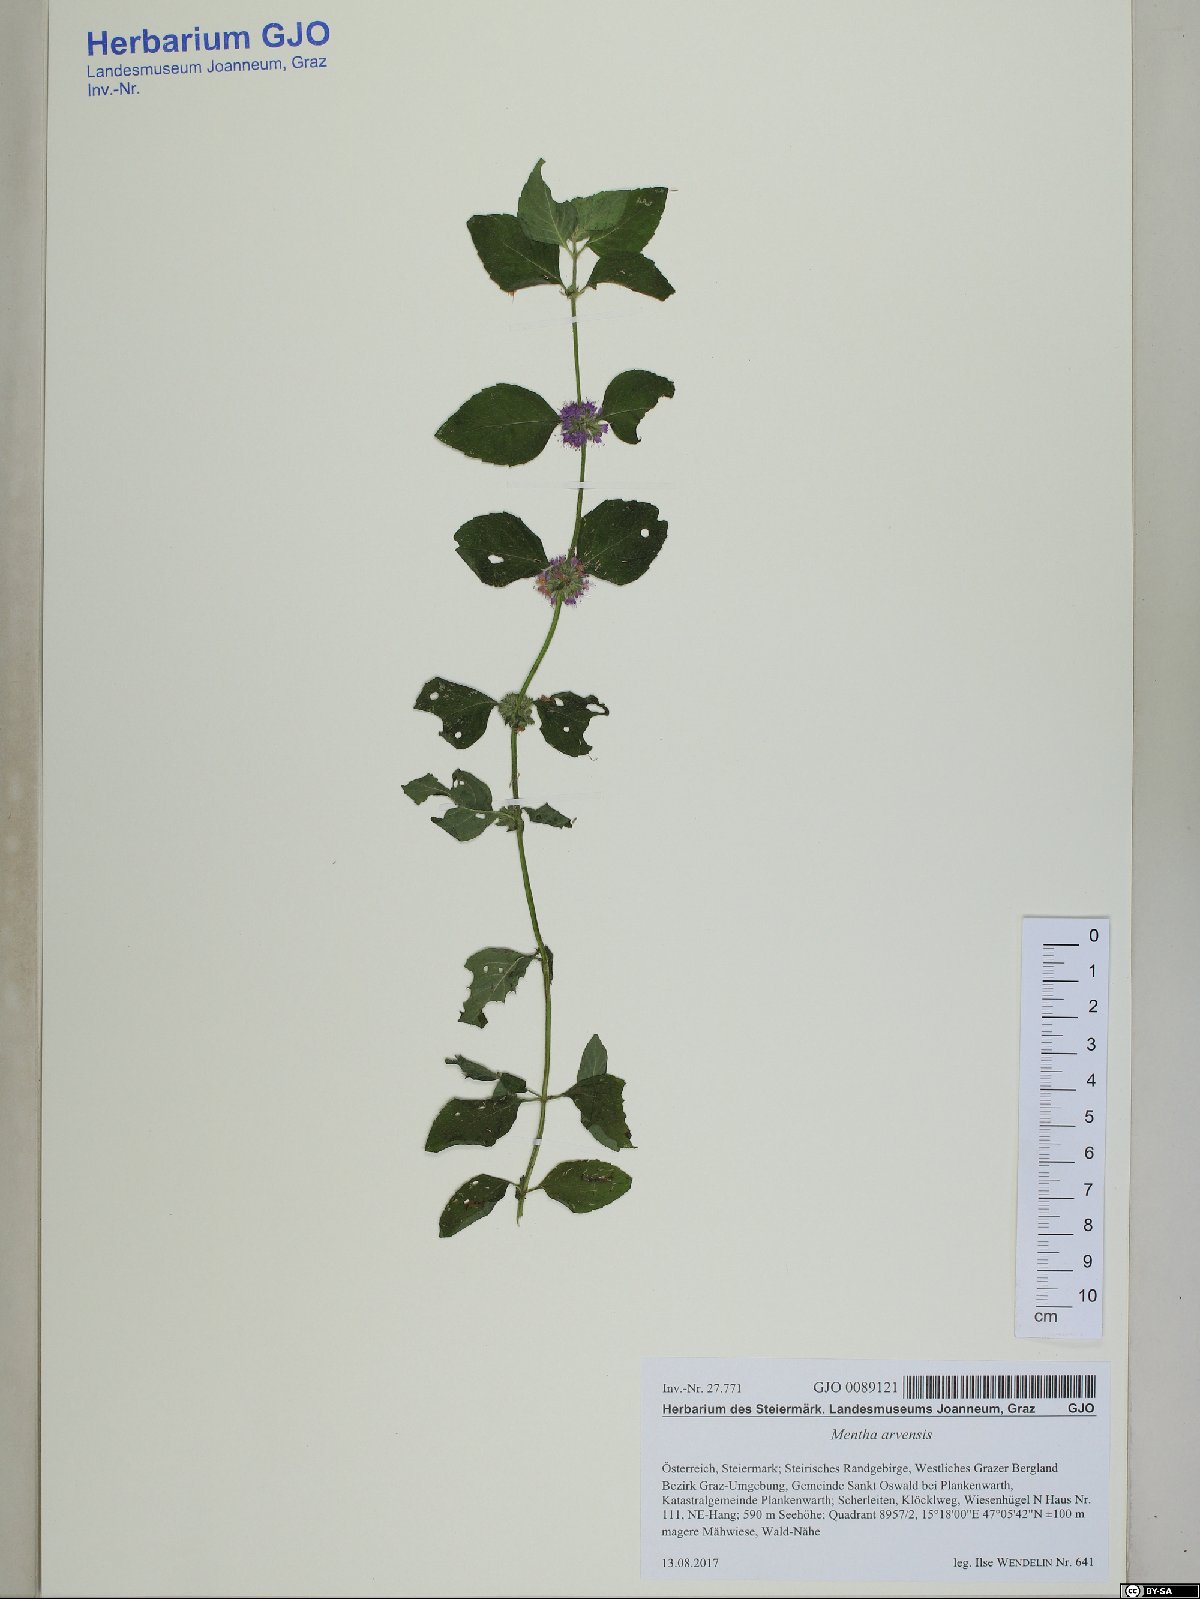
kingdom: Plantae
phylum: Tracheophyta
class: Magnoliopsida
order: Lamiales
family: Lamiaceae
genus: Mentha
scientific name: Mentha arvensis
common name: Corn mint
